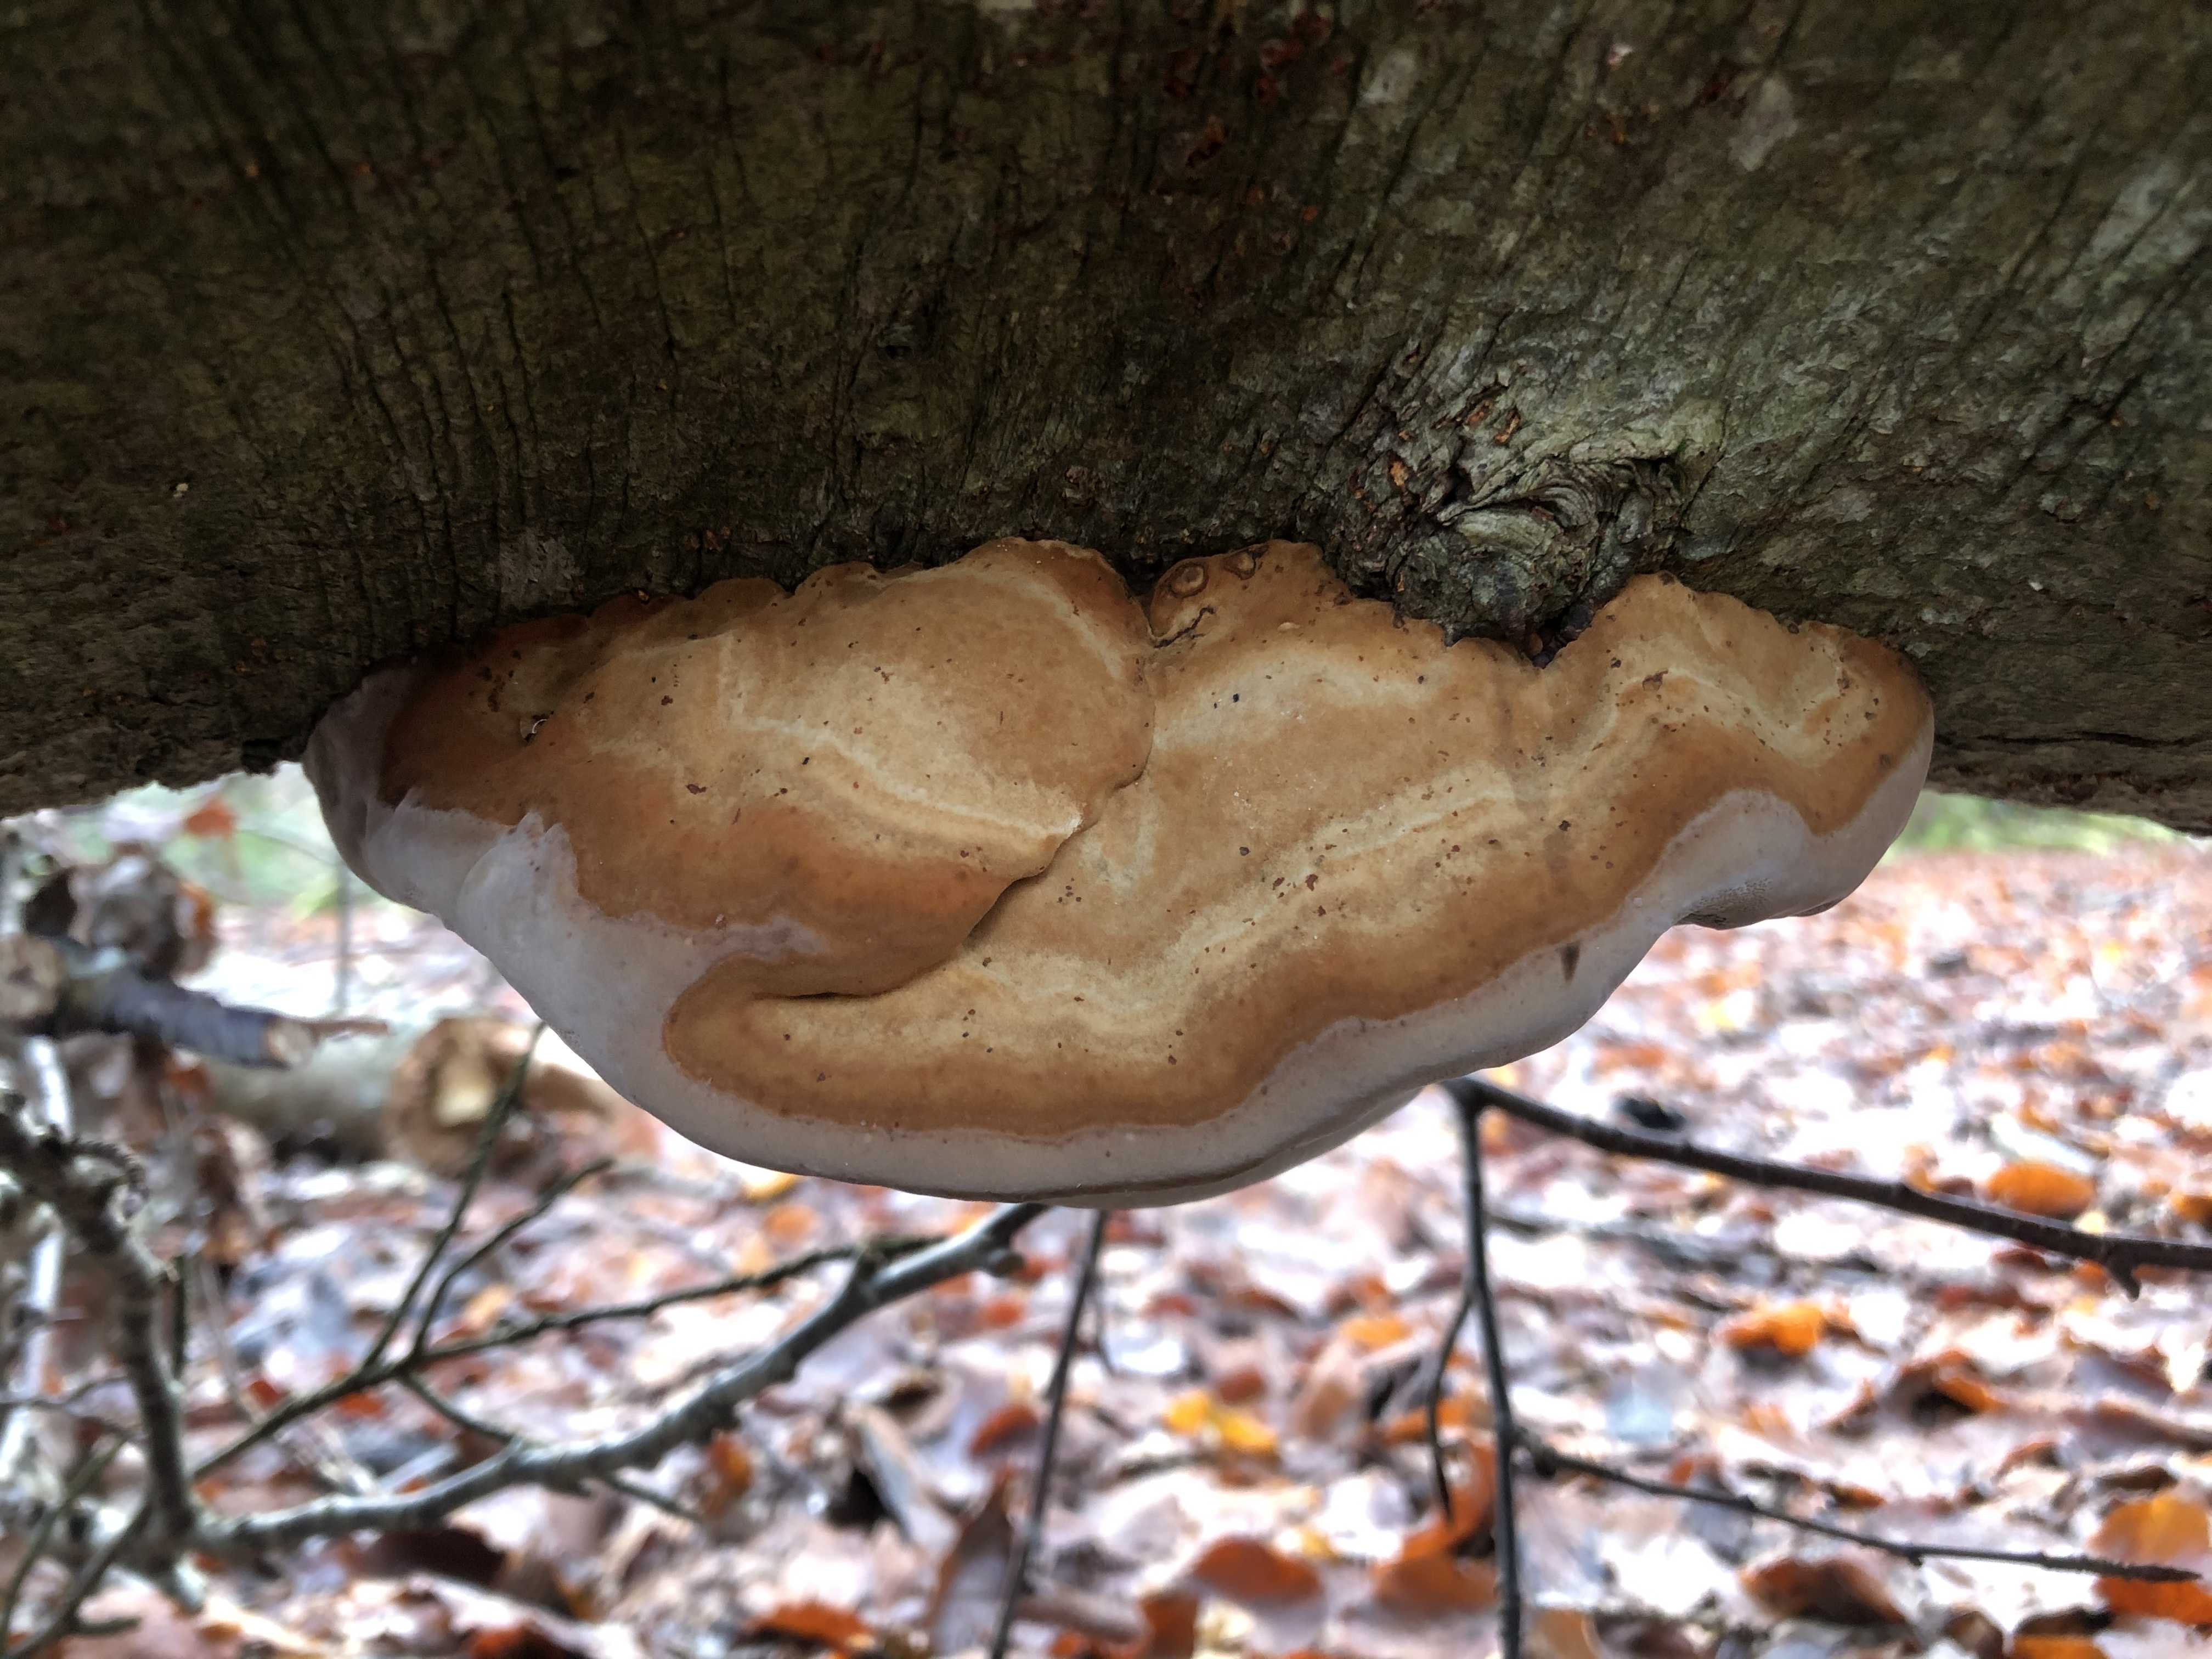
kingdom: Fungi
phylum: Basidiomycota
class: Agaricomycetes
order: Polyporales
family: Fomitopsidaceae
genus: Fomitopsis
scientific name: Fomitopsis pinicola
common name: randbæltet hovporesvamp
